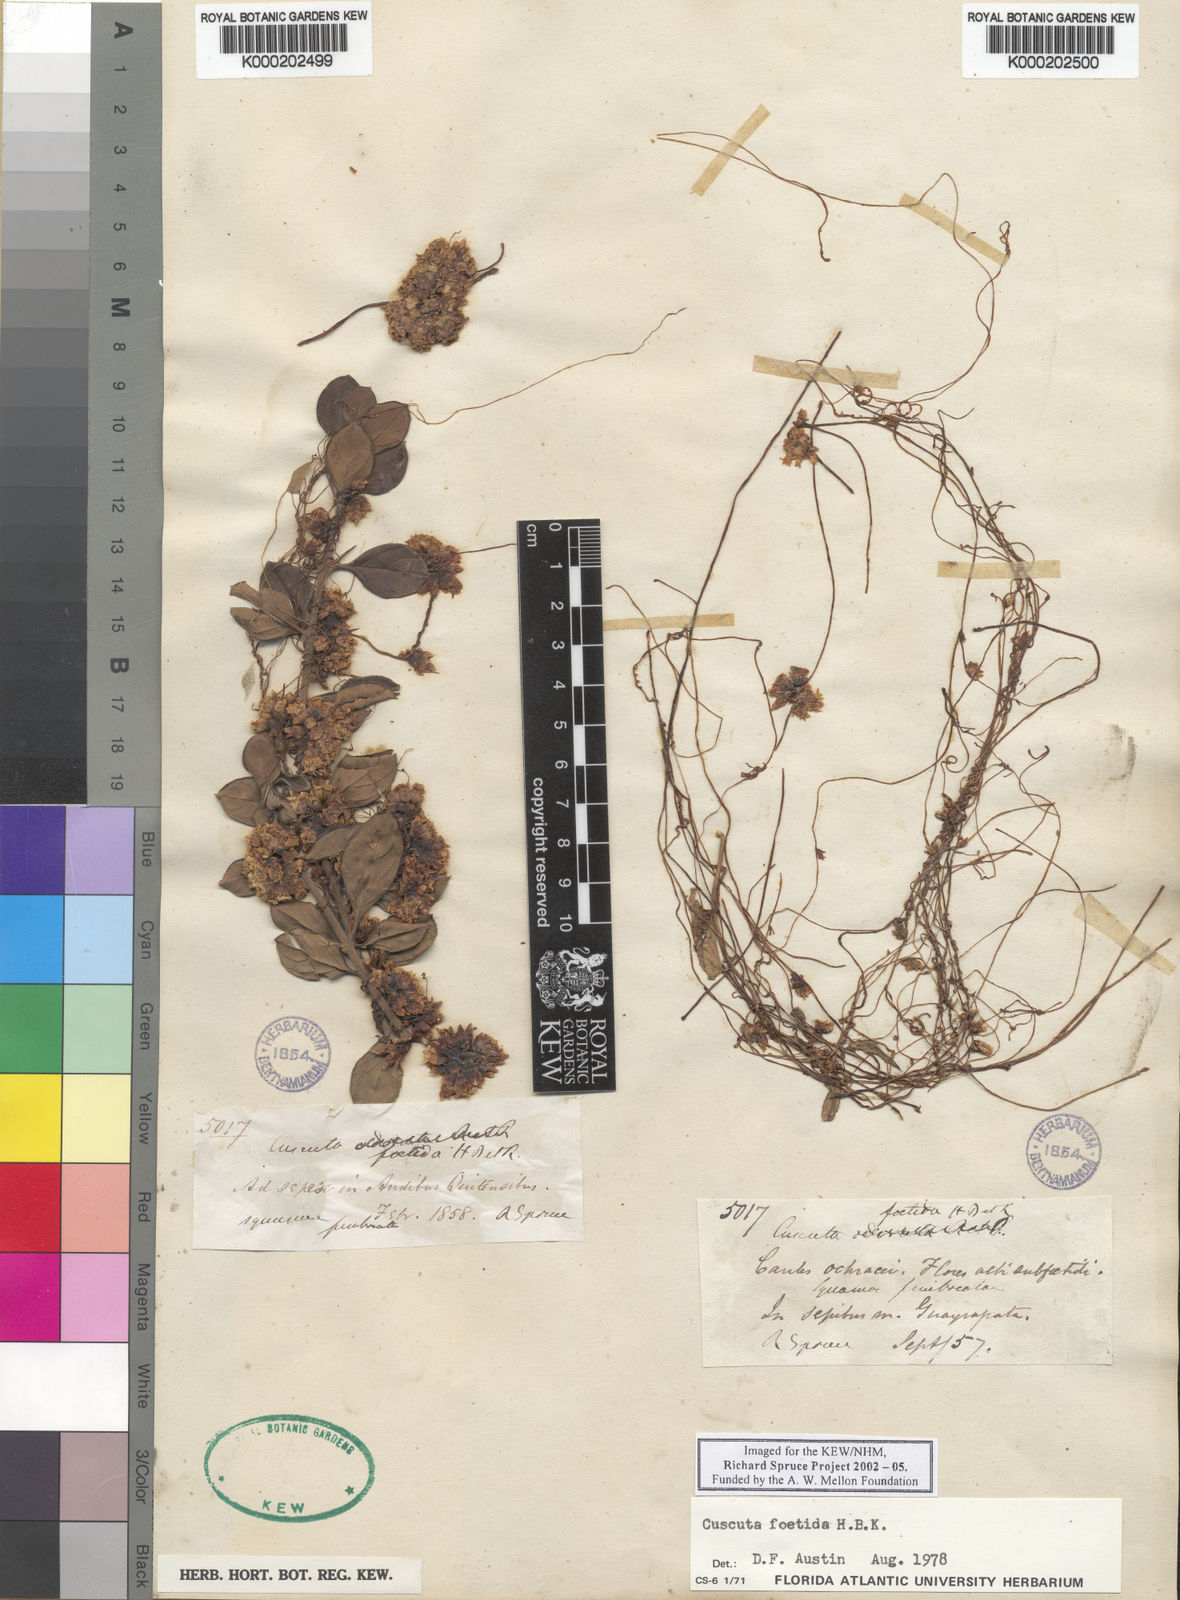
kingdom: Plantae
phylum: Tracheophyta
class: Magnoliopsida
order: Solanales
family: Convolvulaceae
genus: Cuscuta
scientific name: Cuscuta
